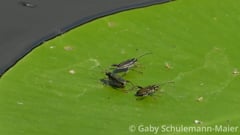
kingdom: Animalia
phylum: Arthropoda
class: Insecta
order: Coleoptera
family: Chrysomelidae
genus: Donacia
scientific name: Donacia crassipes
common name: Water-lily reed beetle
